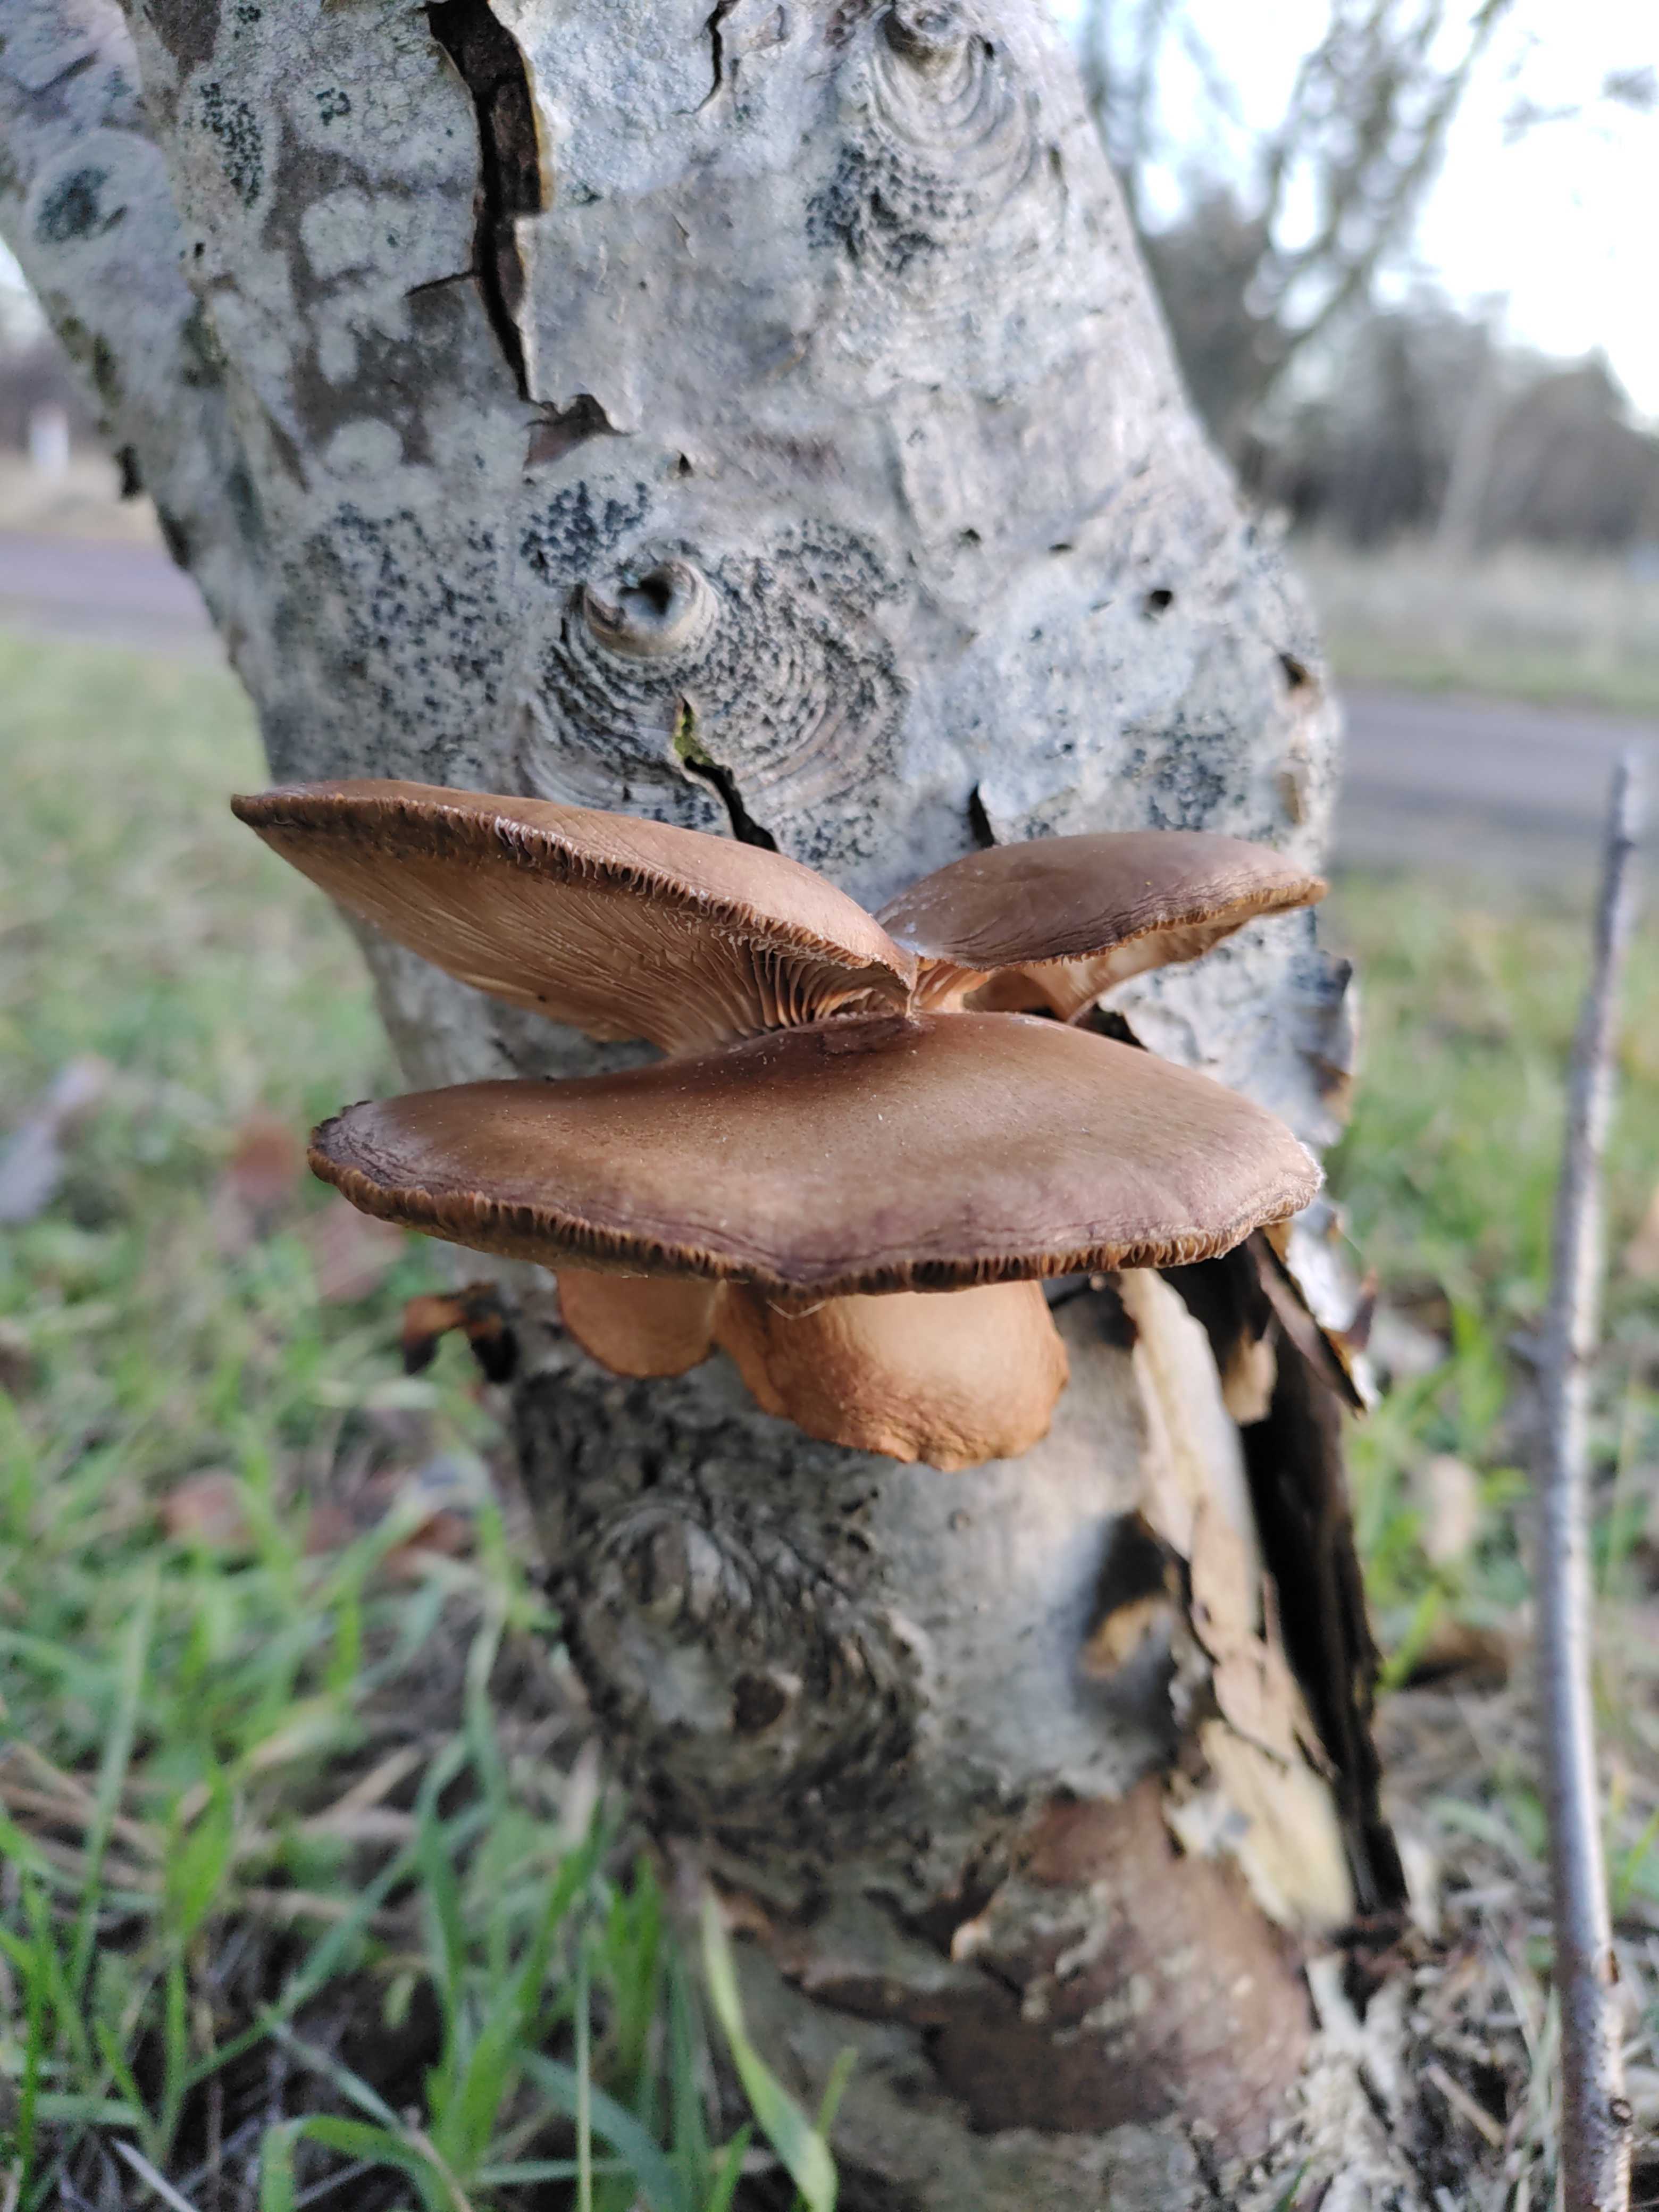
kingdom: Fungi
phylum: Basidiomycota
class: Agaricomycetes
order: Agaricales
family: Pleurotaceae
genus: Pleurotus
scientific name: Pleurotus ostreatus
